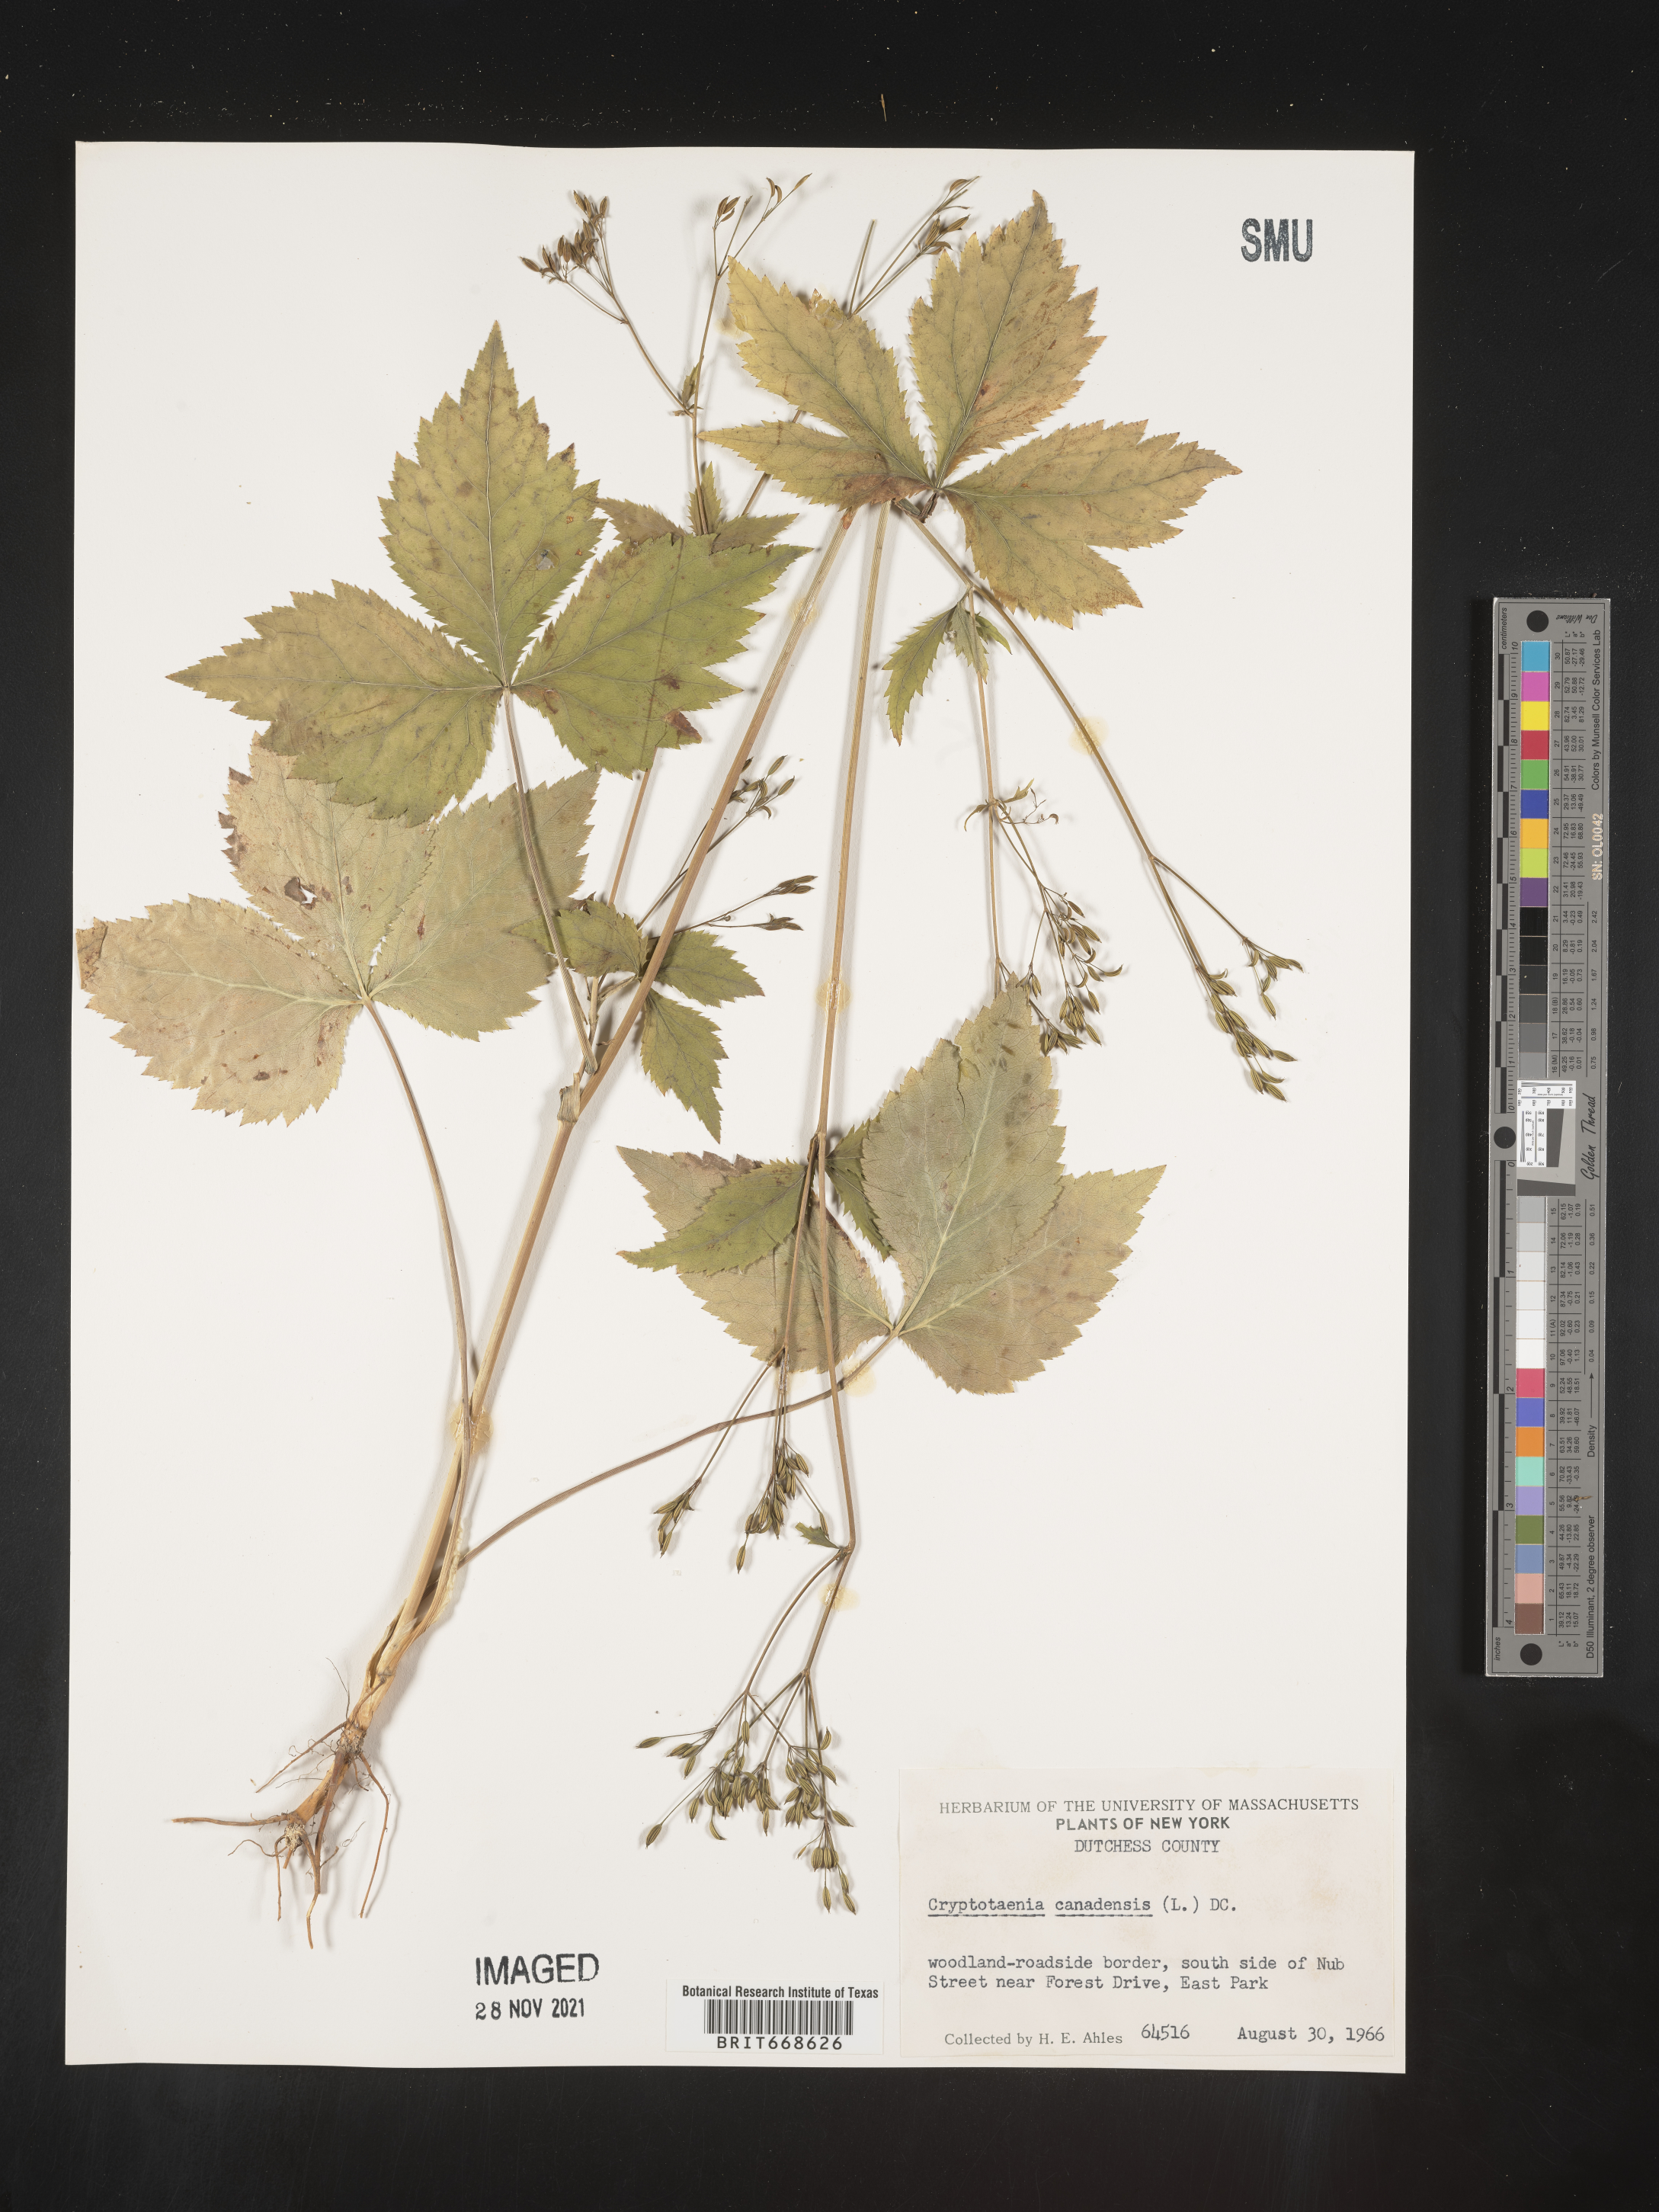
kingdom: Plantae
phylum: Tracheophyta
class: Magnoliopsida
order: Apiales
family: Apiaceae
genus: Cryptotaenia
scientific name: Cryptotaenia canadensis
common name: Honewort
